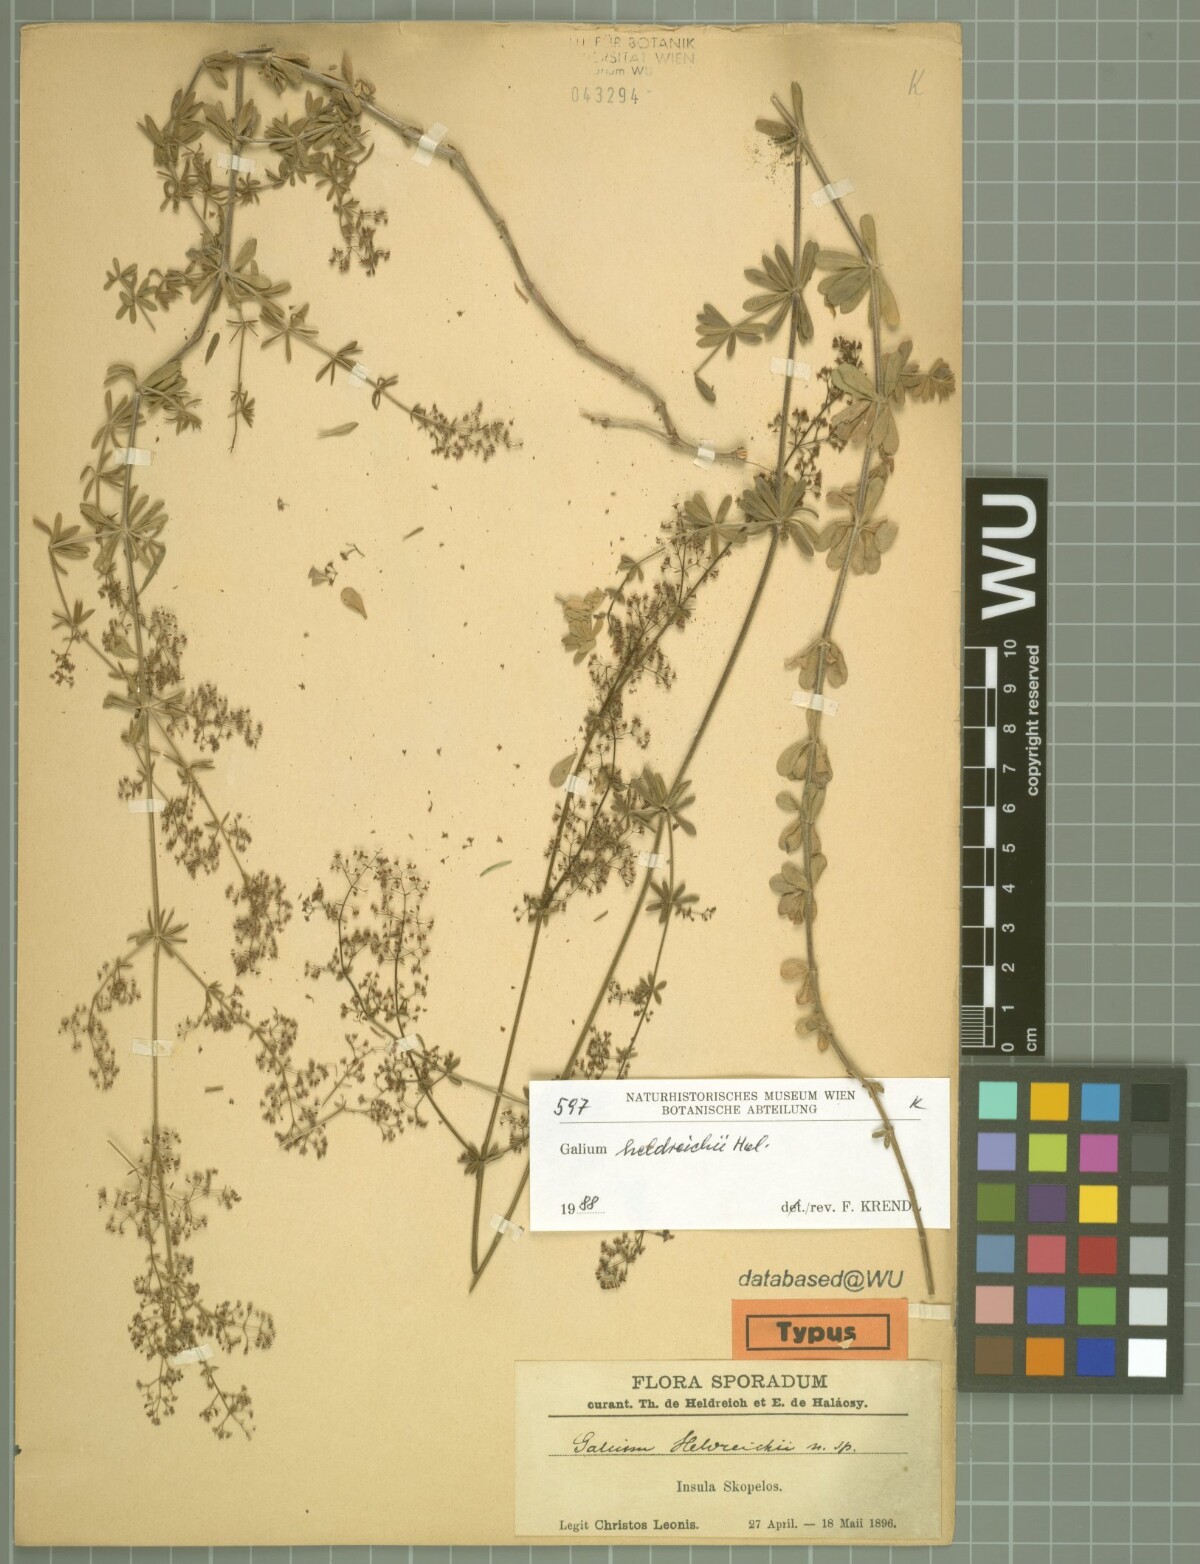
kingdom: Plantae
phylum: Tracheophyta
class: Magnoliopsida
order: Gentianales
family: Rubiaceae
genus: Galium
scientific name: Galium heldreichii
